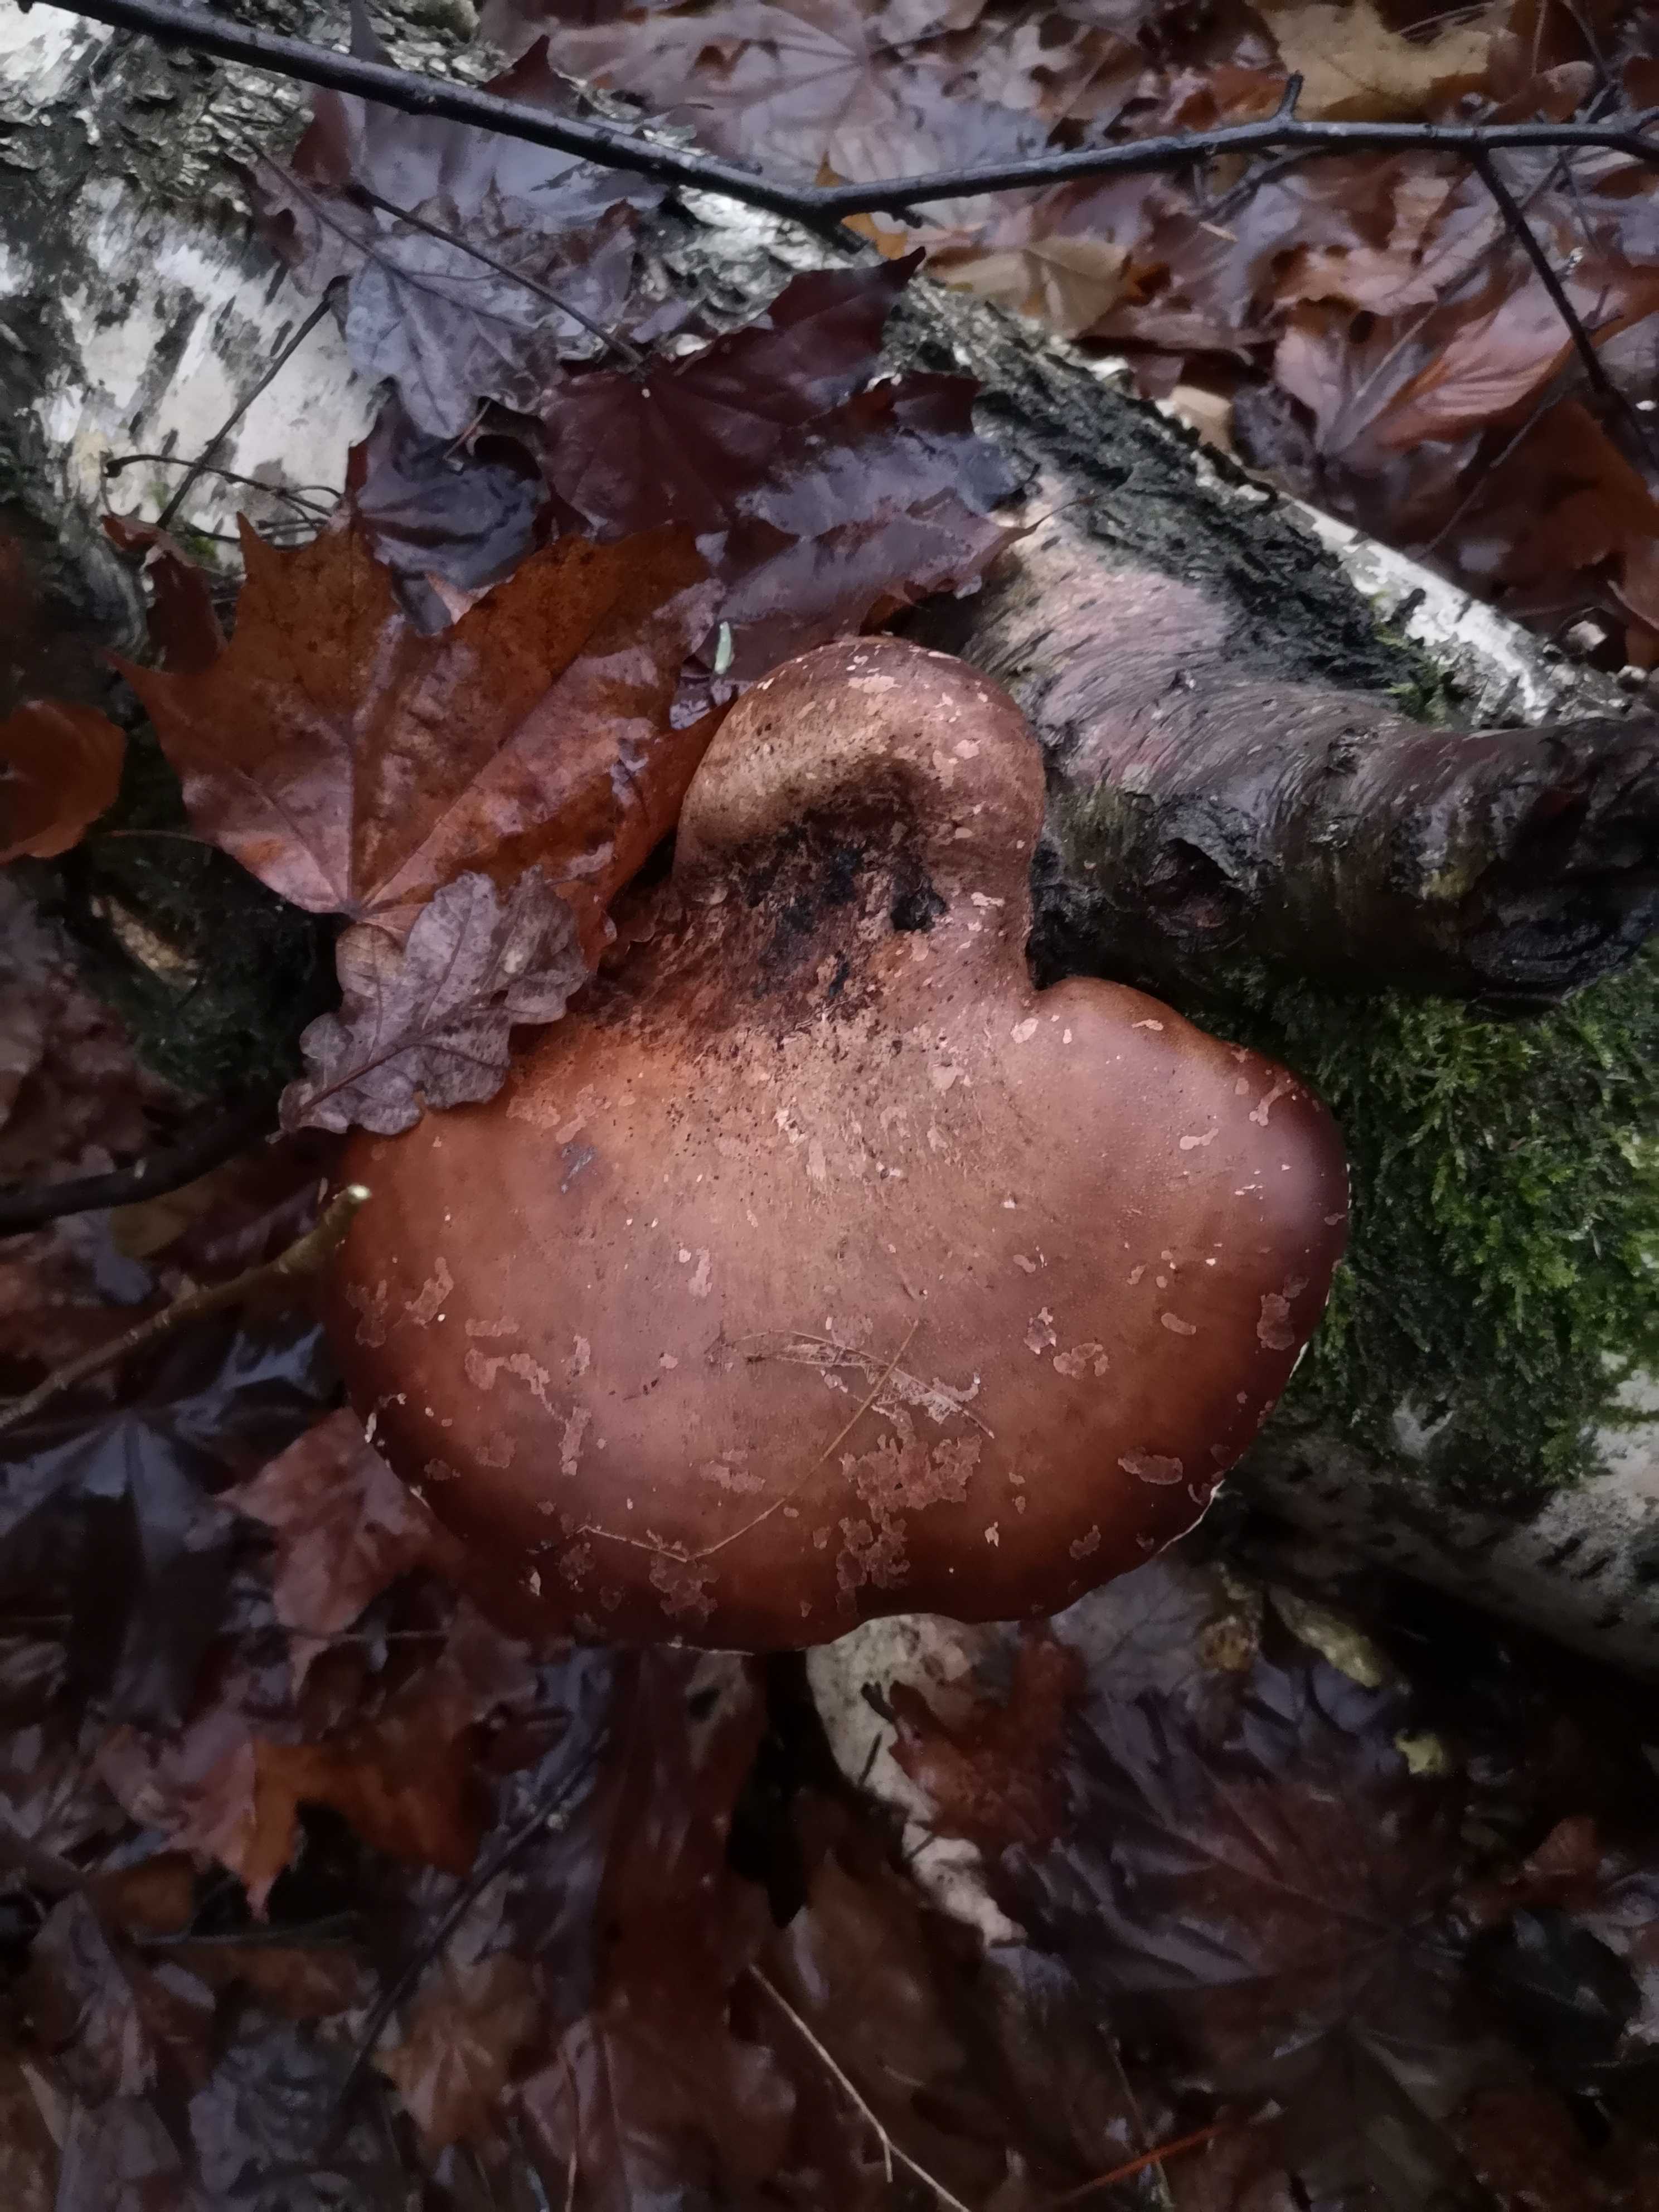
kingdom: Fungi
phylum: Basidiomycota
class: Agaricomycetes
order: Polyporales
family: Fomitopsidaceae
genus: Fomitopsis
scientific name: Fomitopsis betulina
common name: birkeporesvamp
